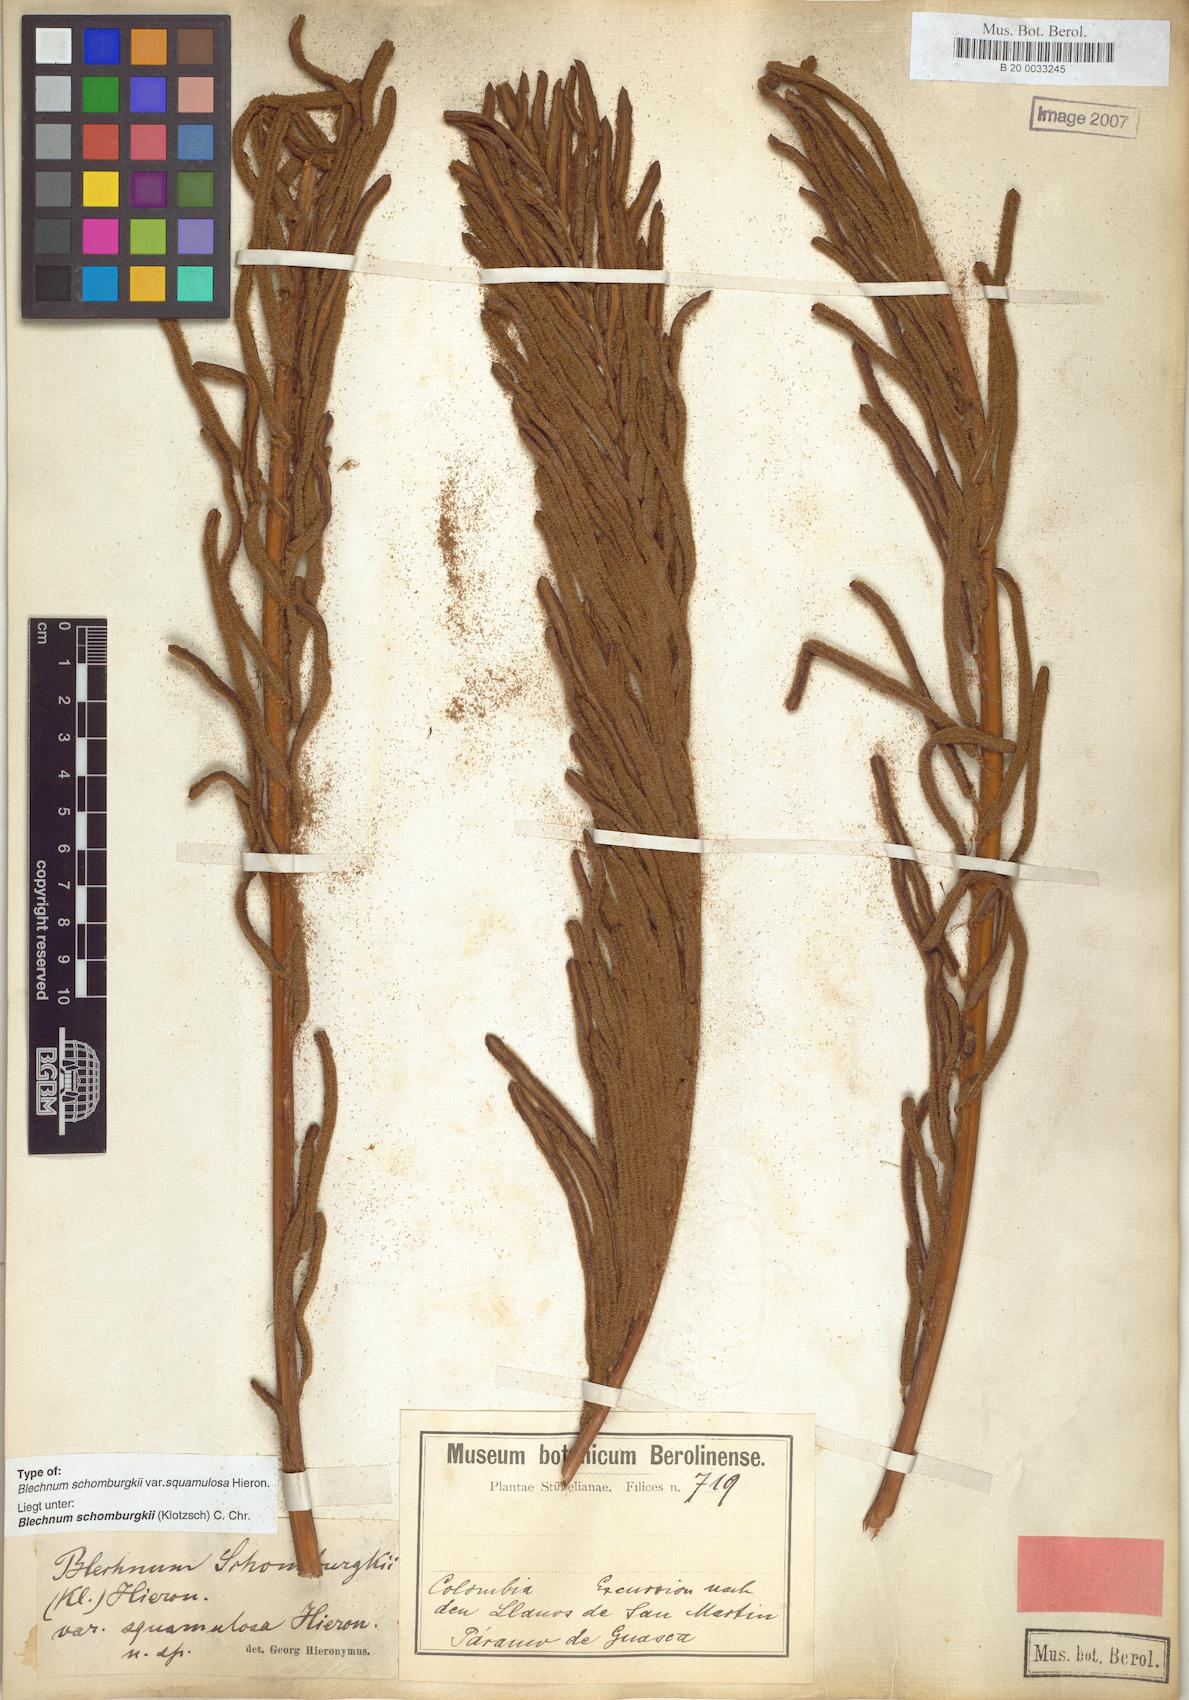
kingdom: Plantae
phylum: Tracheophyta
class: Polypodiopsida
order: Polypodiales
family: Blechnaceae
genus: Lomariocycas
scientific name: Lomariocycas schomburgkii
